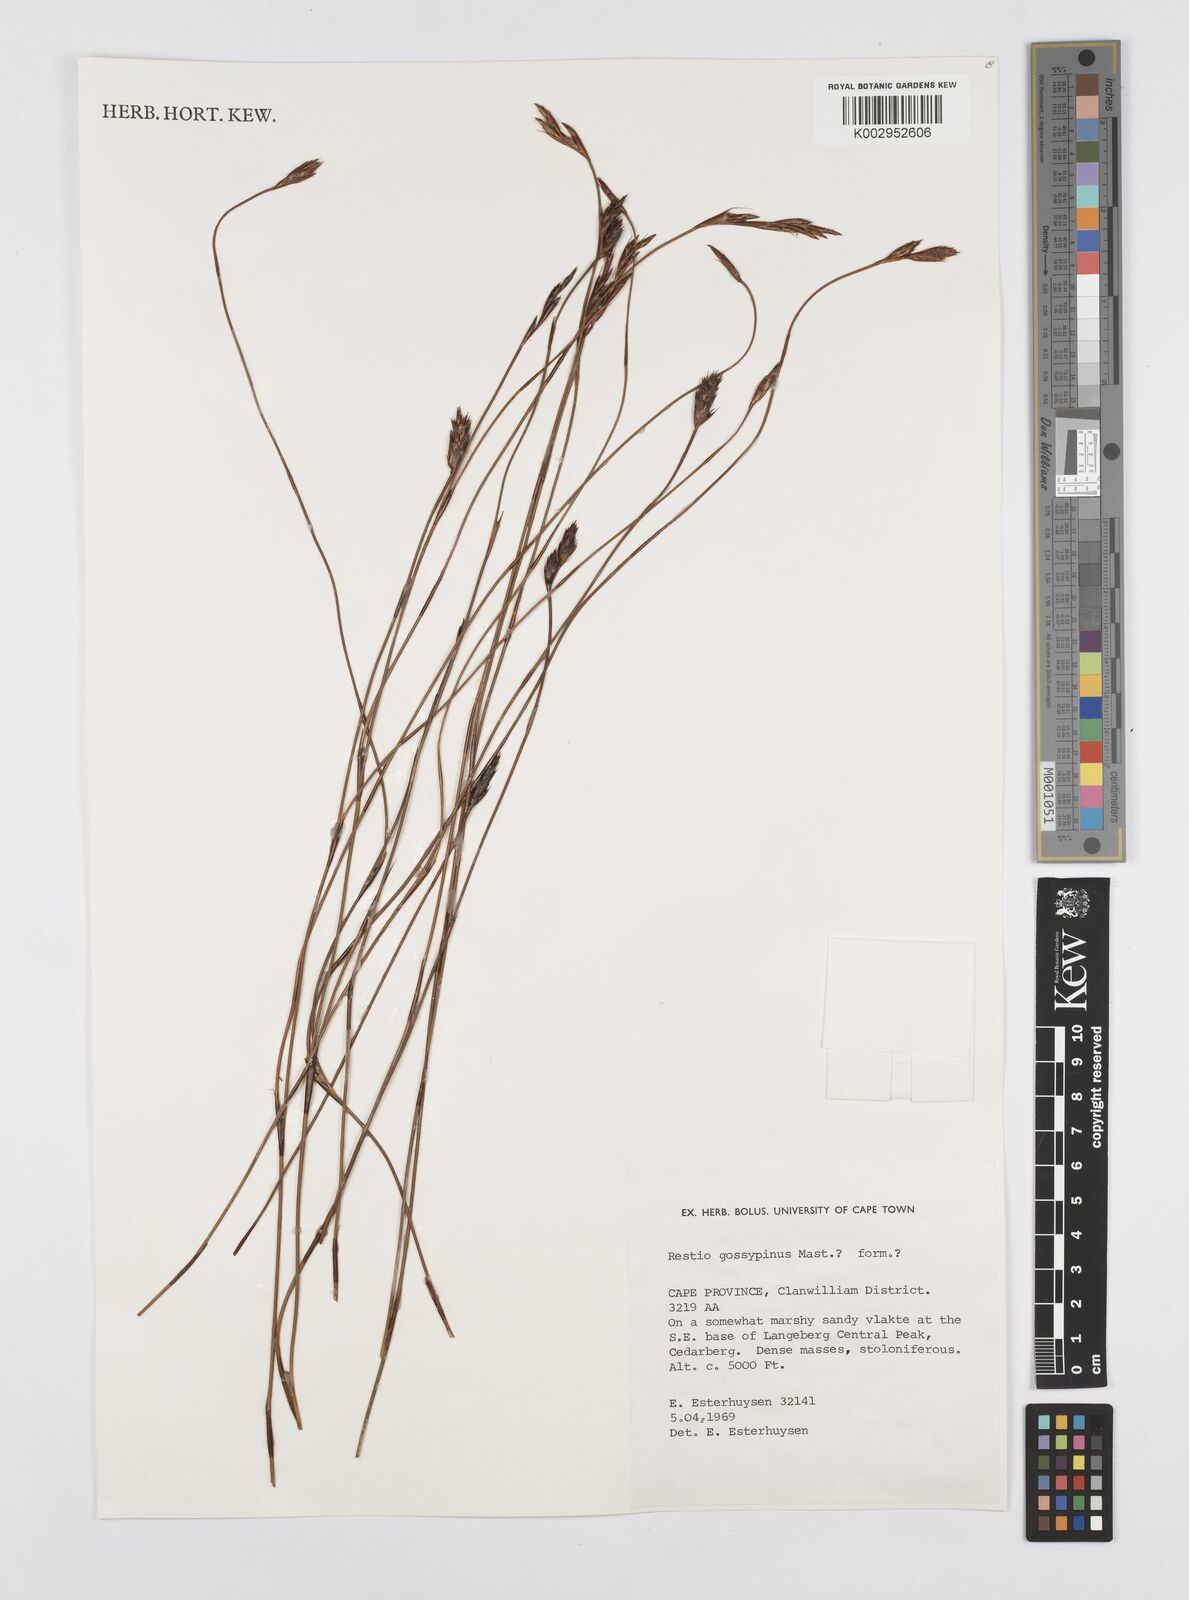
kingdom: Plantae
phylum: Tracheophyta
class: Liliopsida
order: Poales
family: Restionaceae
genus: Restio
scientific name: Restio gossypinus
